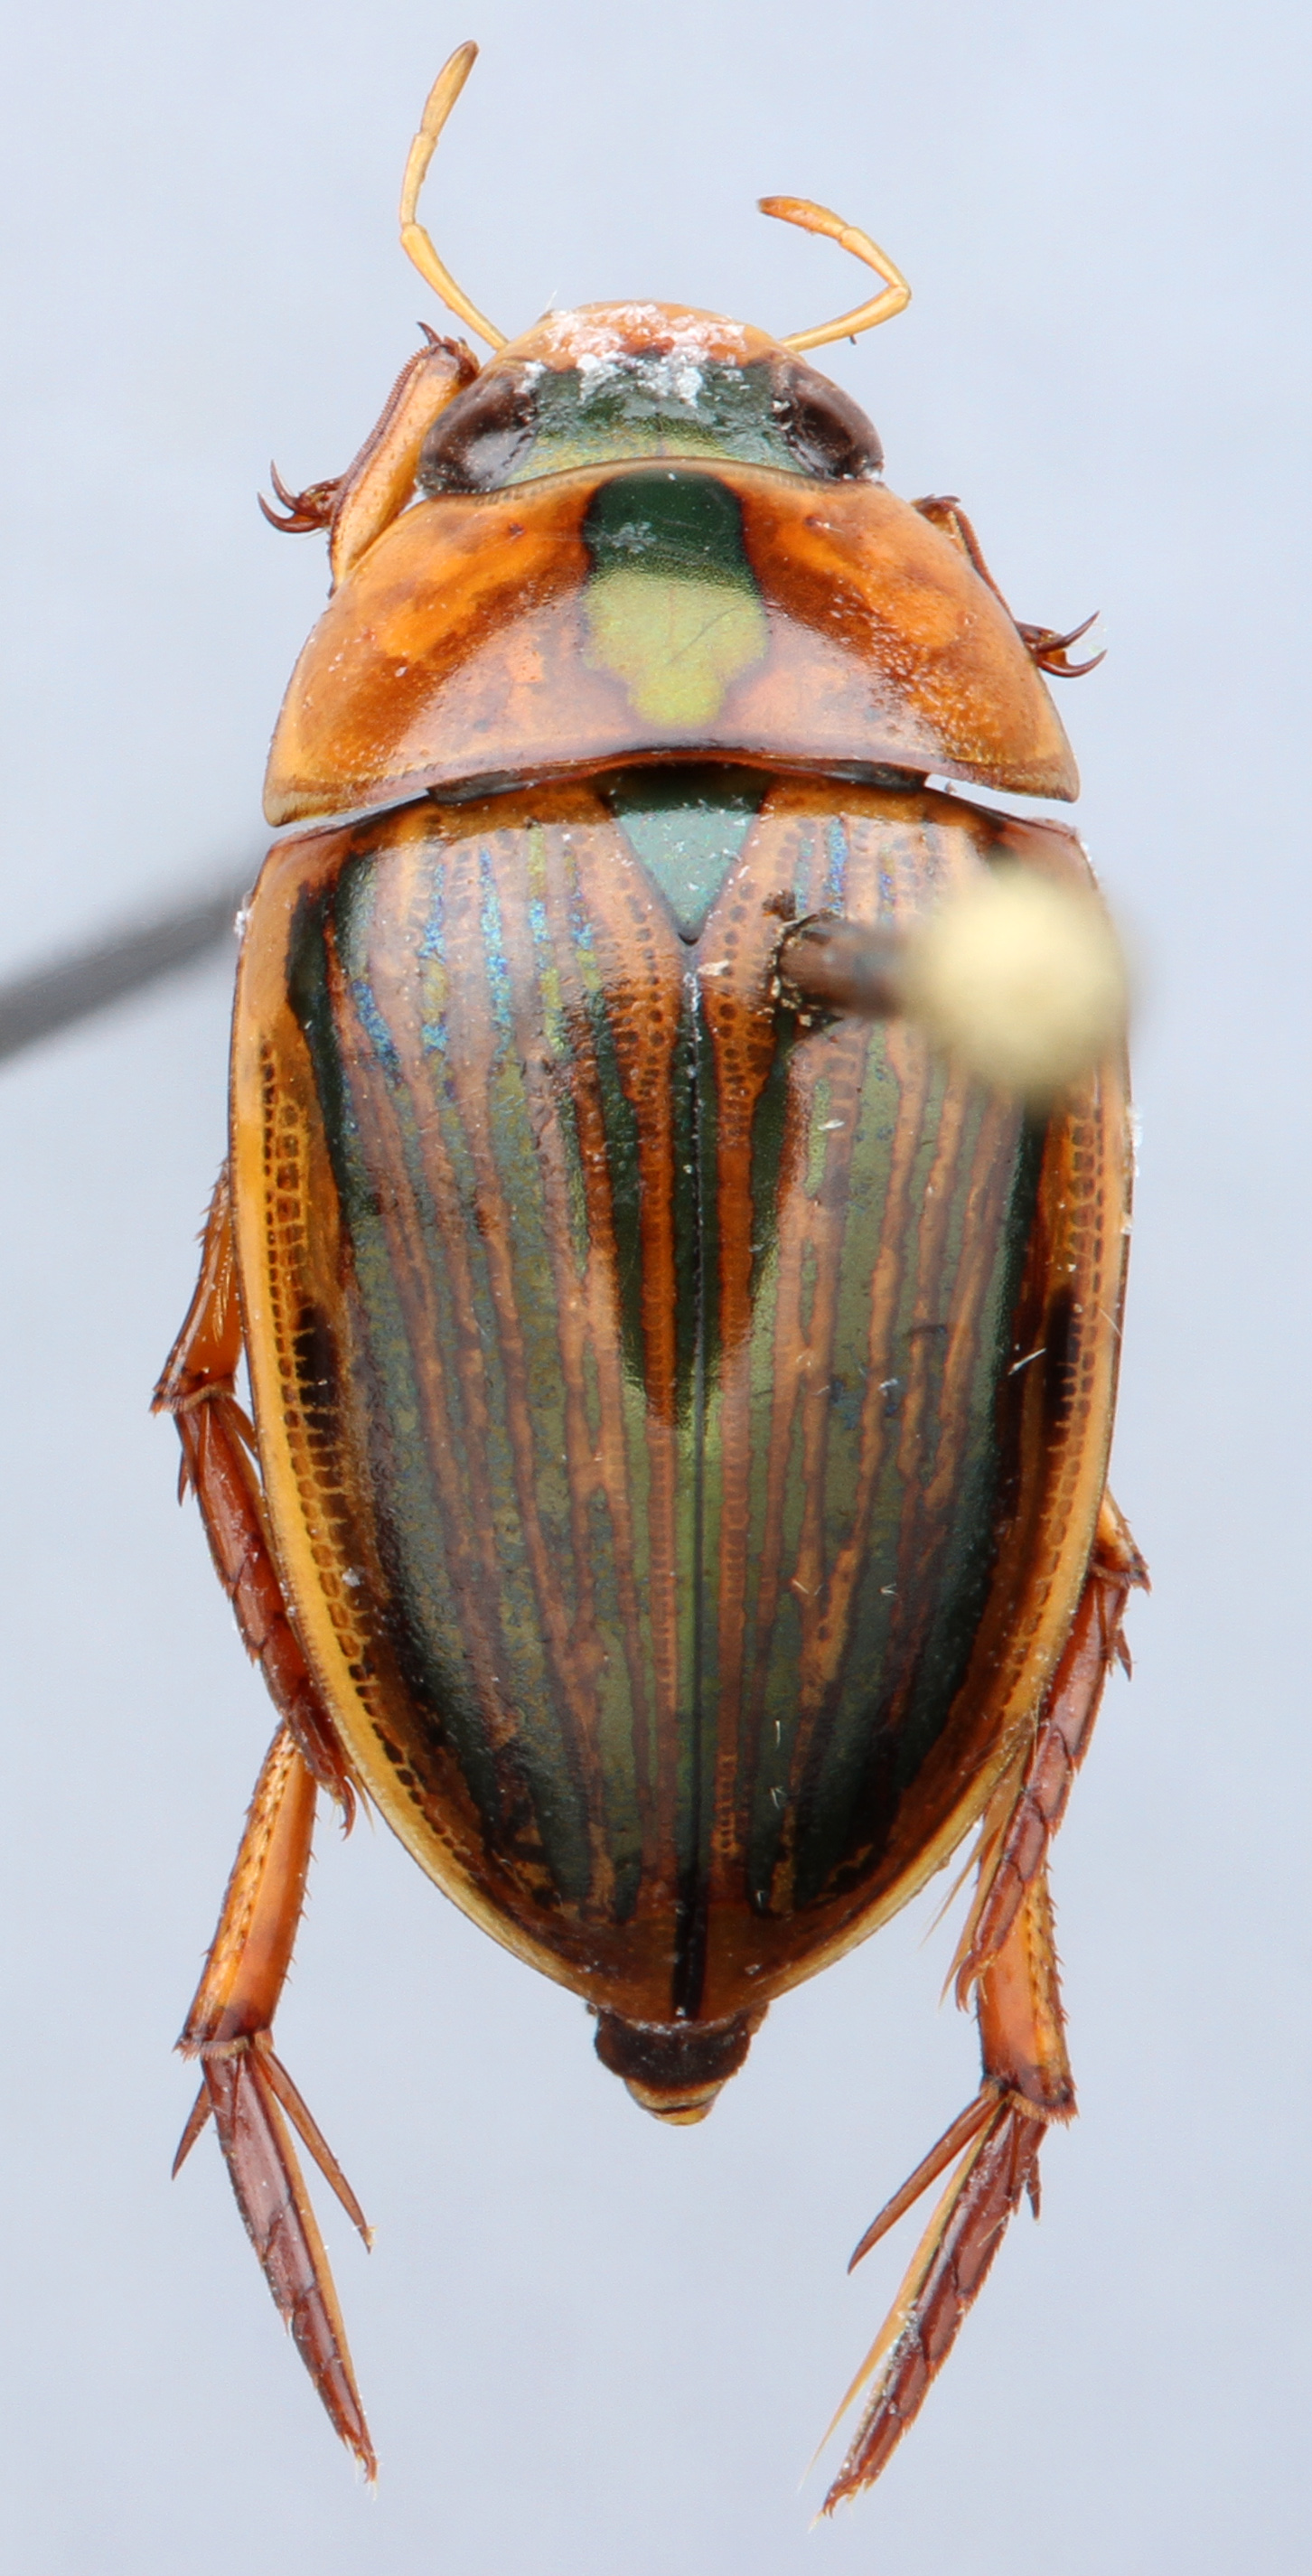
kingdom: Animalia
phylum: Arthropoda
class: Insecta
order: Coleoptera
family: Hydrophilidae
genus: Tropisternus
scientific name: Tropisternus collaris
